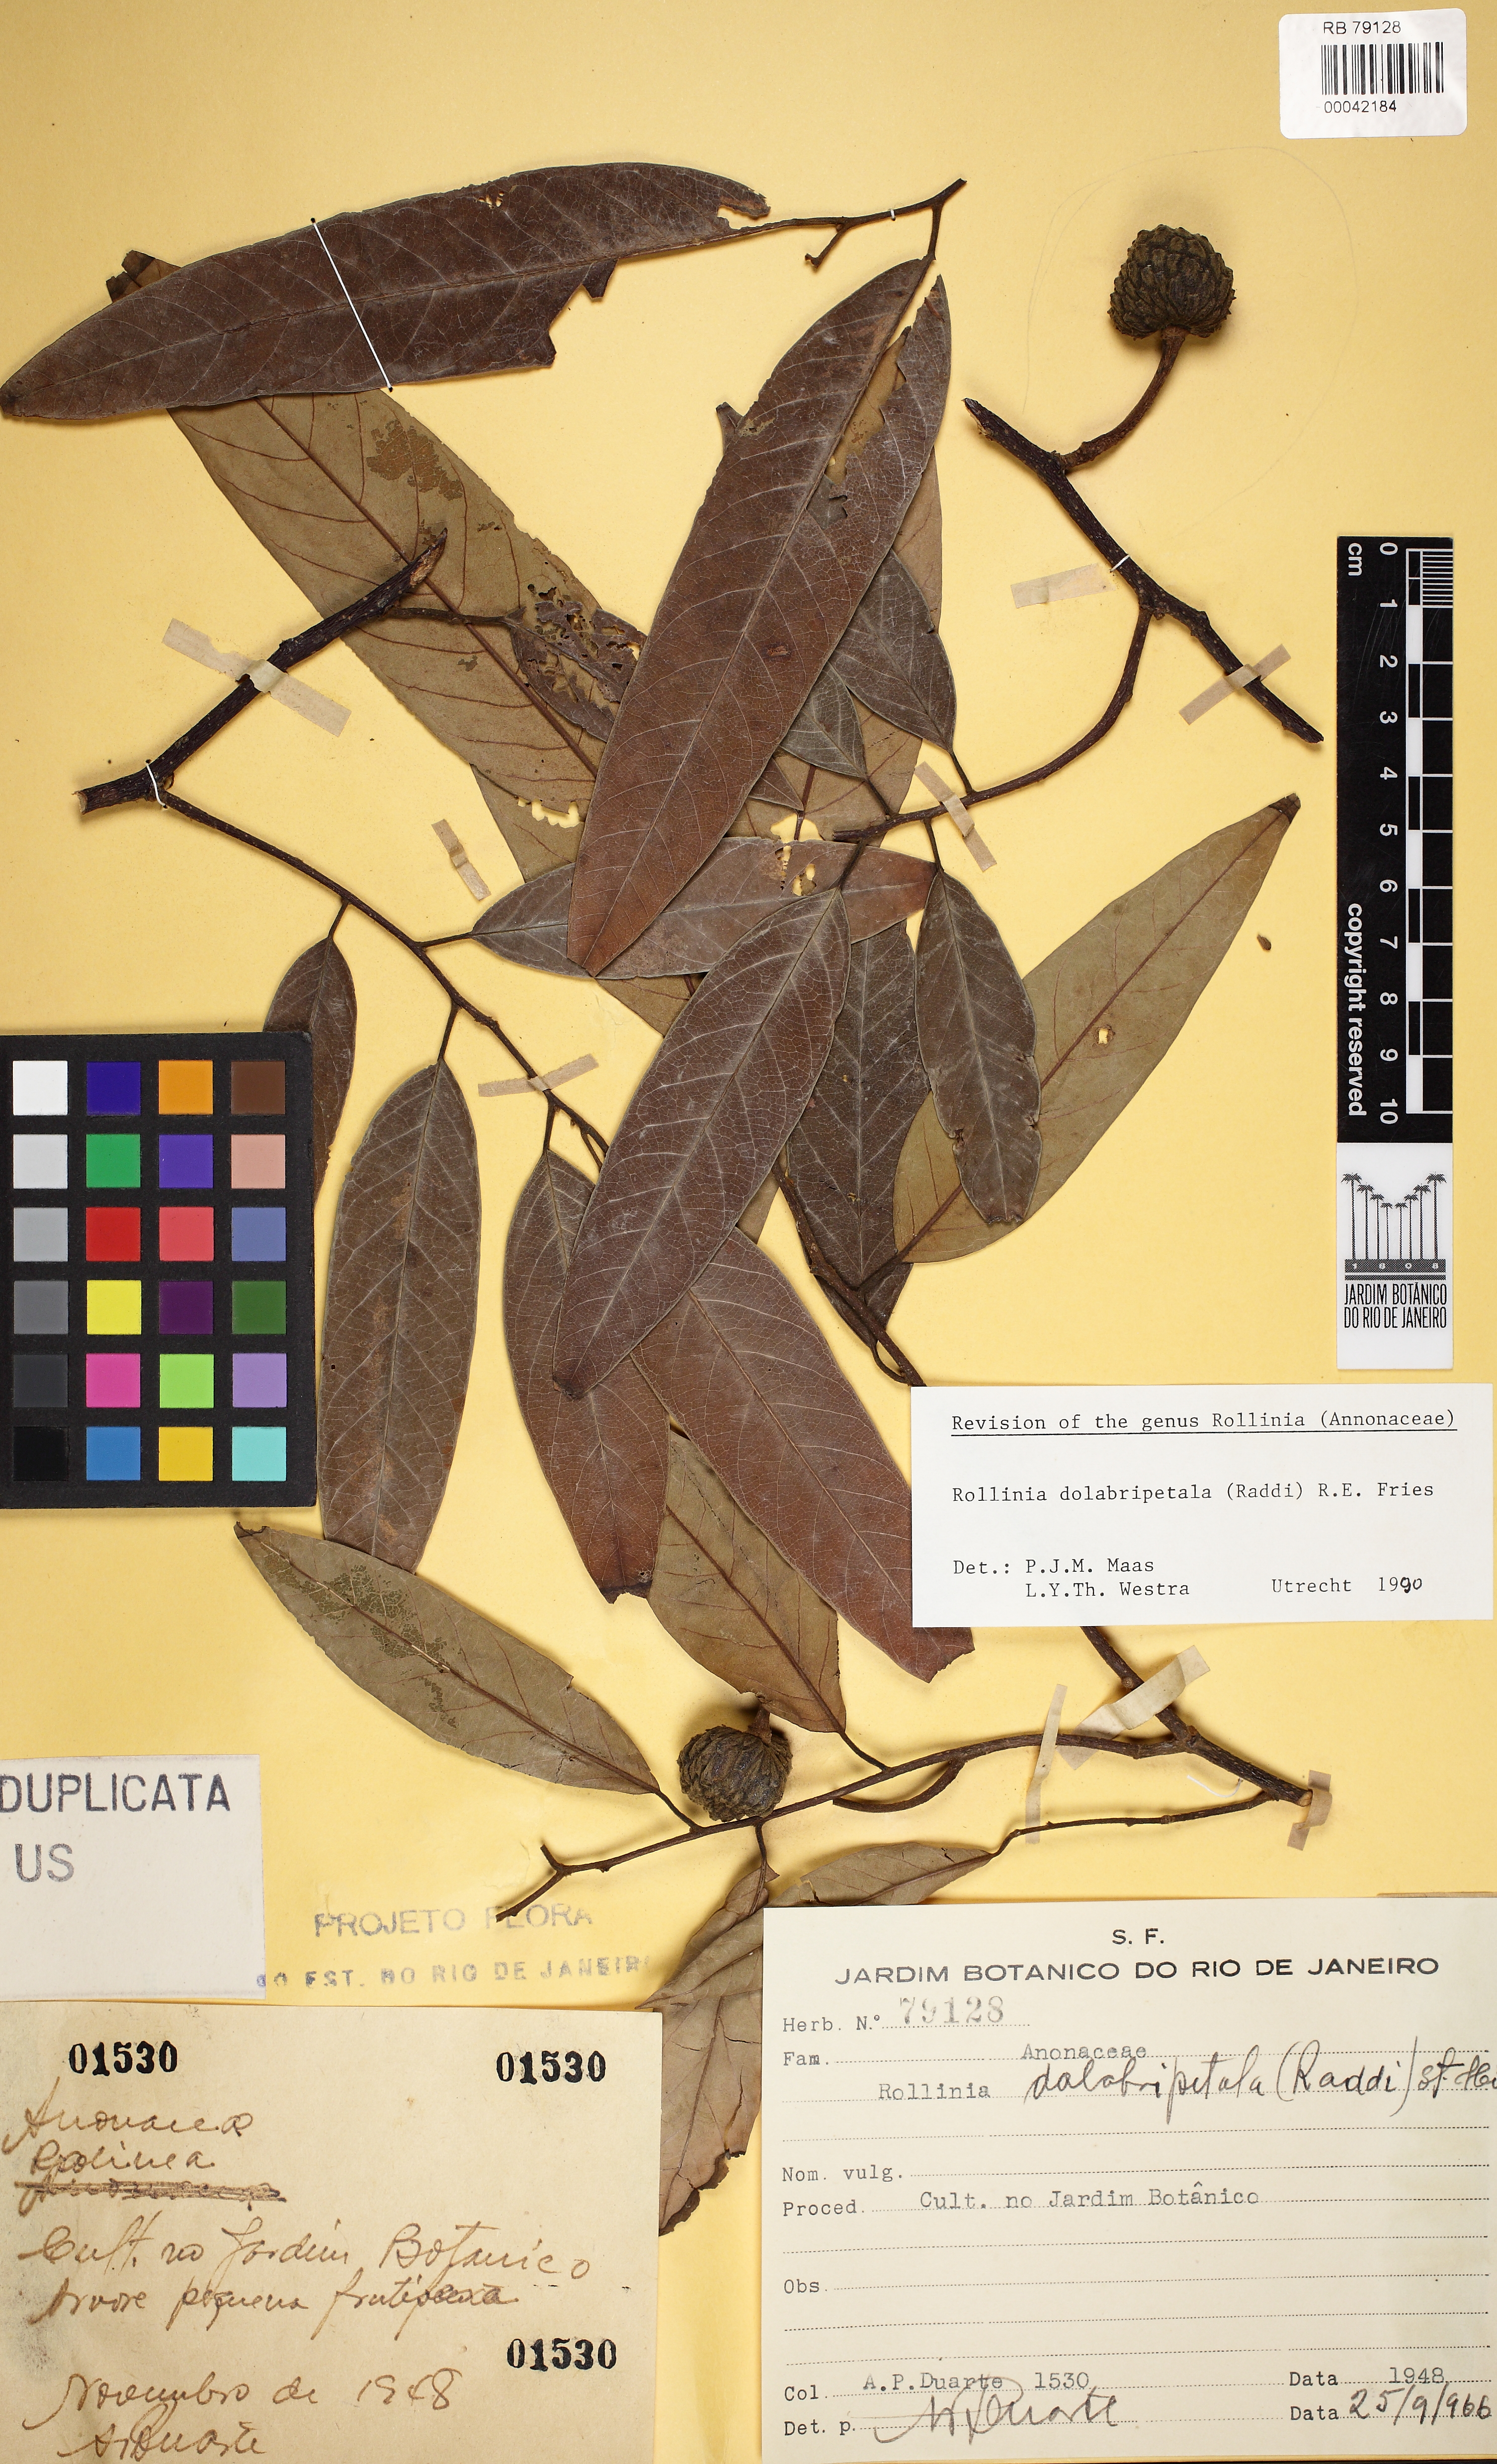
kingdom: Plantae
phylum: Tracheophyta
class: Magnoliopsida
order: Magnoliales
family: Annonaceae
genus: Annona
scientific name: Annona dolabripetala
